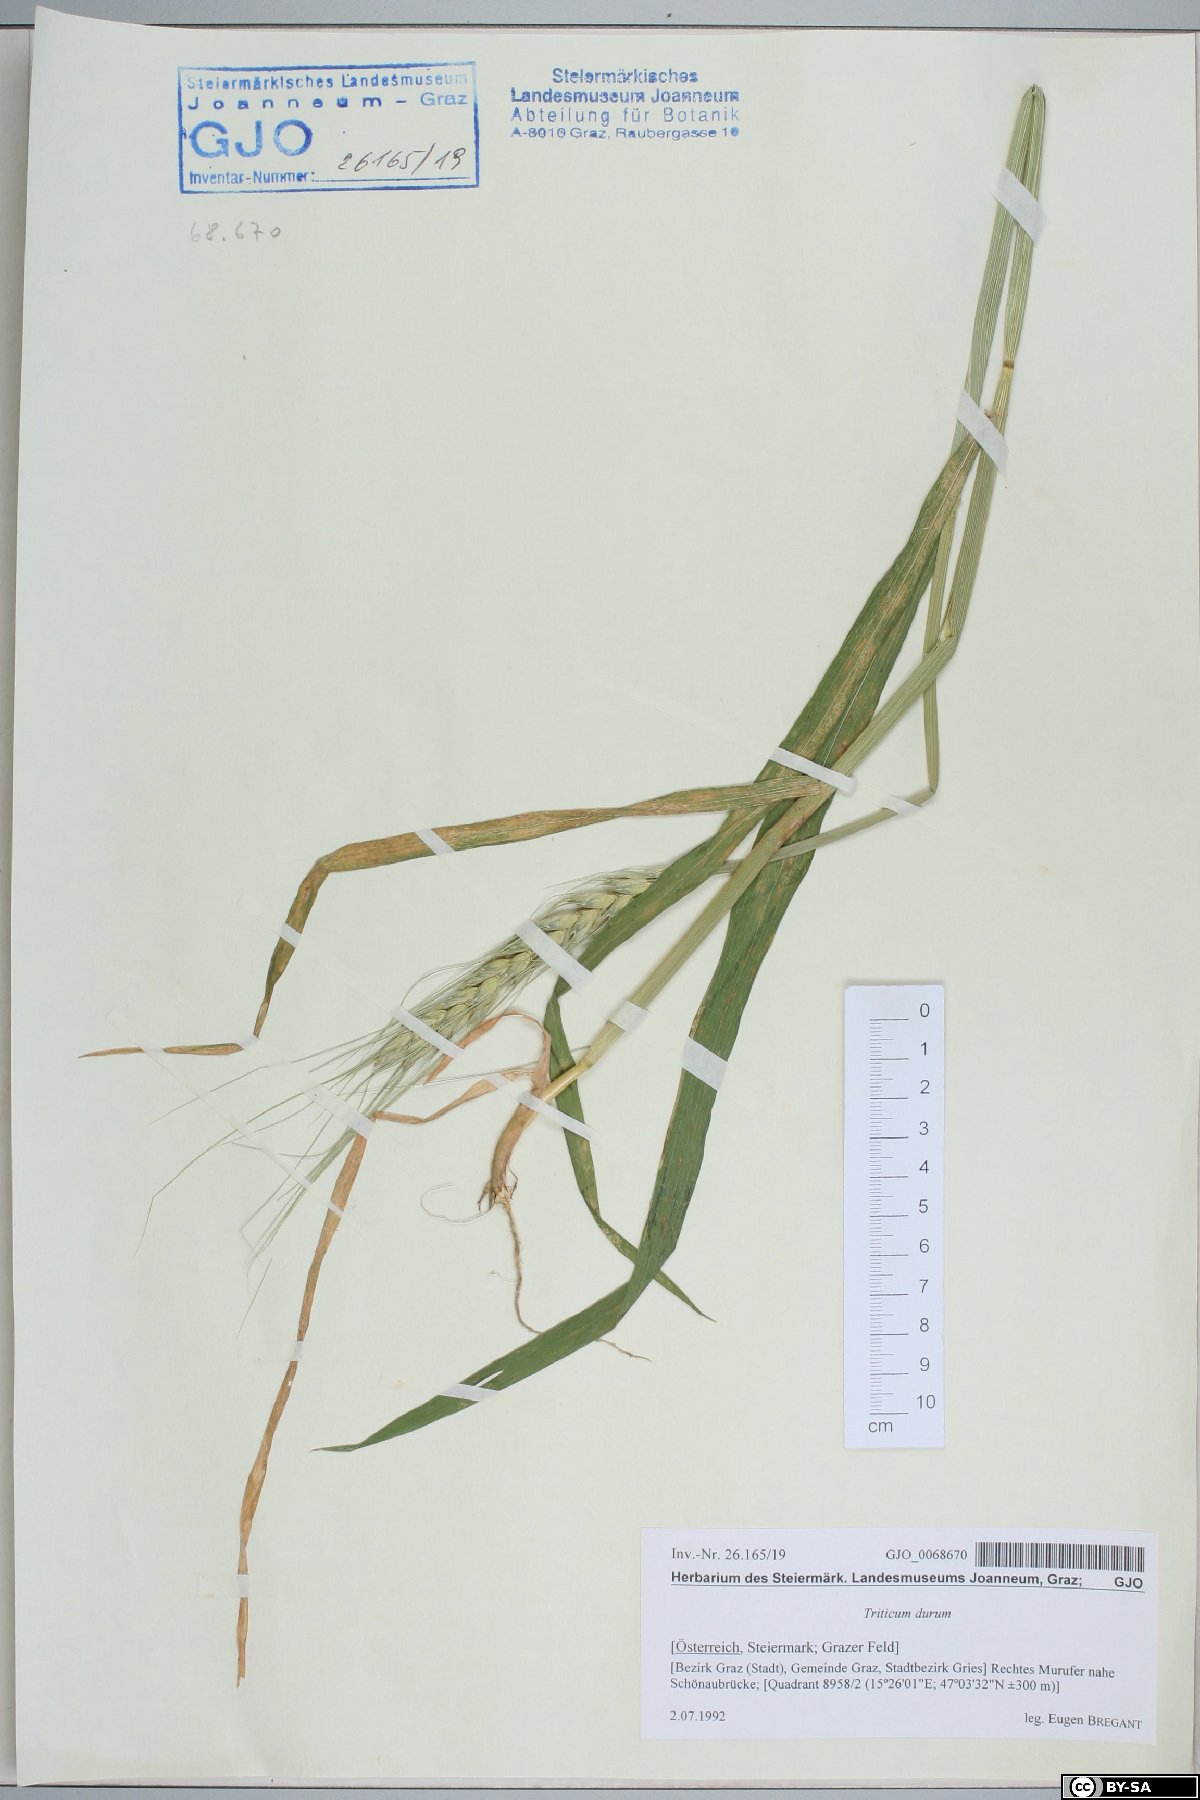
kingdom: Plantae
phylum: Tracheophyta
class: Liliopsida
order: Poales
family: Poaceae
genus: Triticum
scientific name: Triticum turgidum
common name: Rivet wheat
